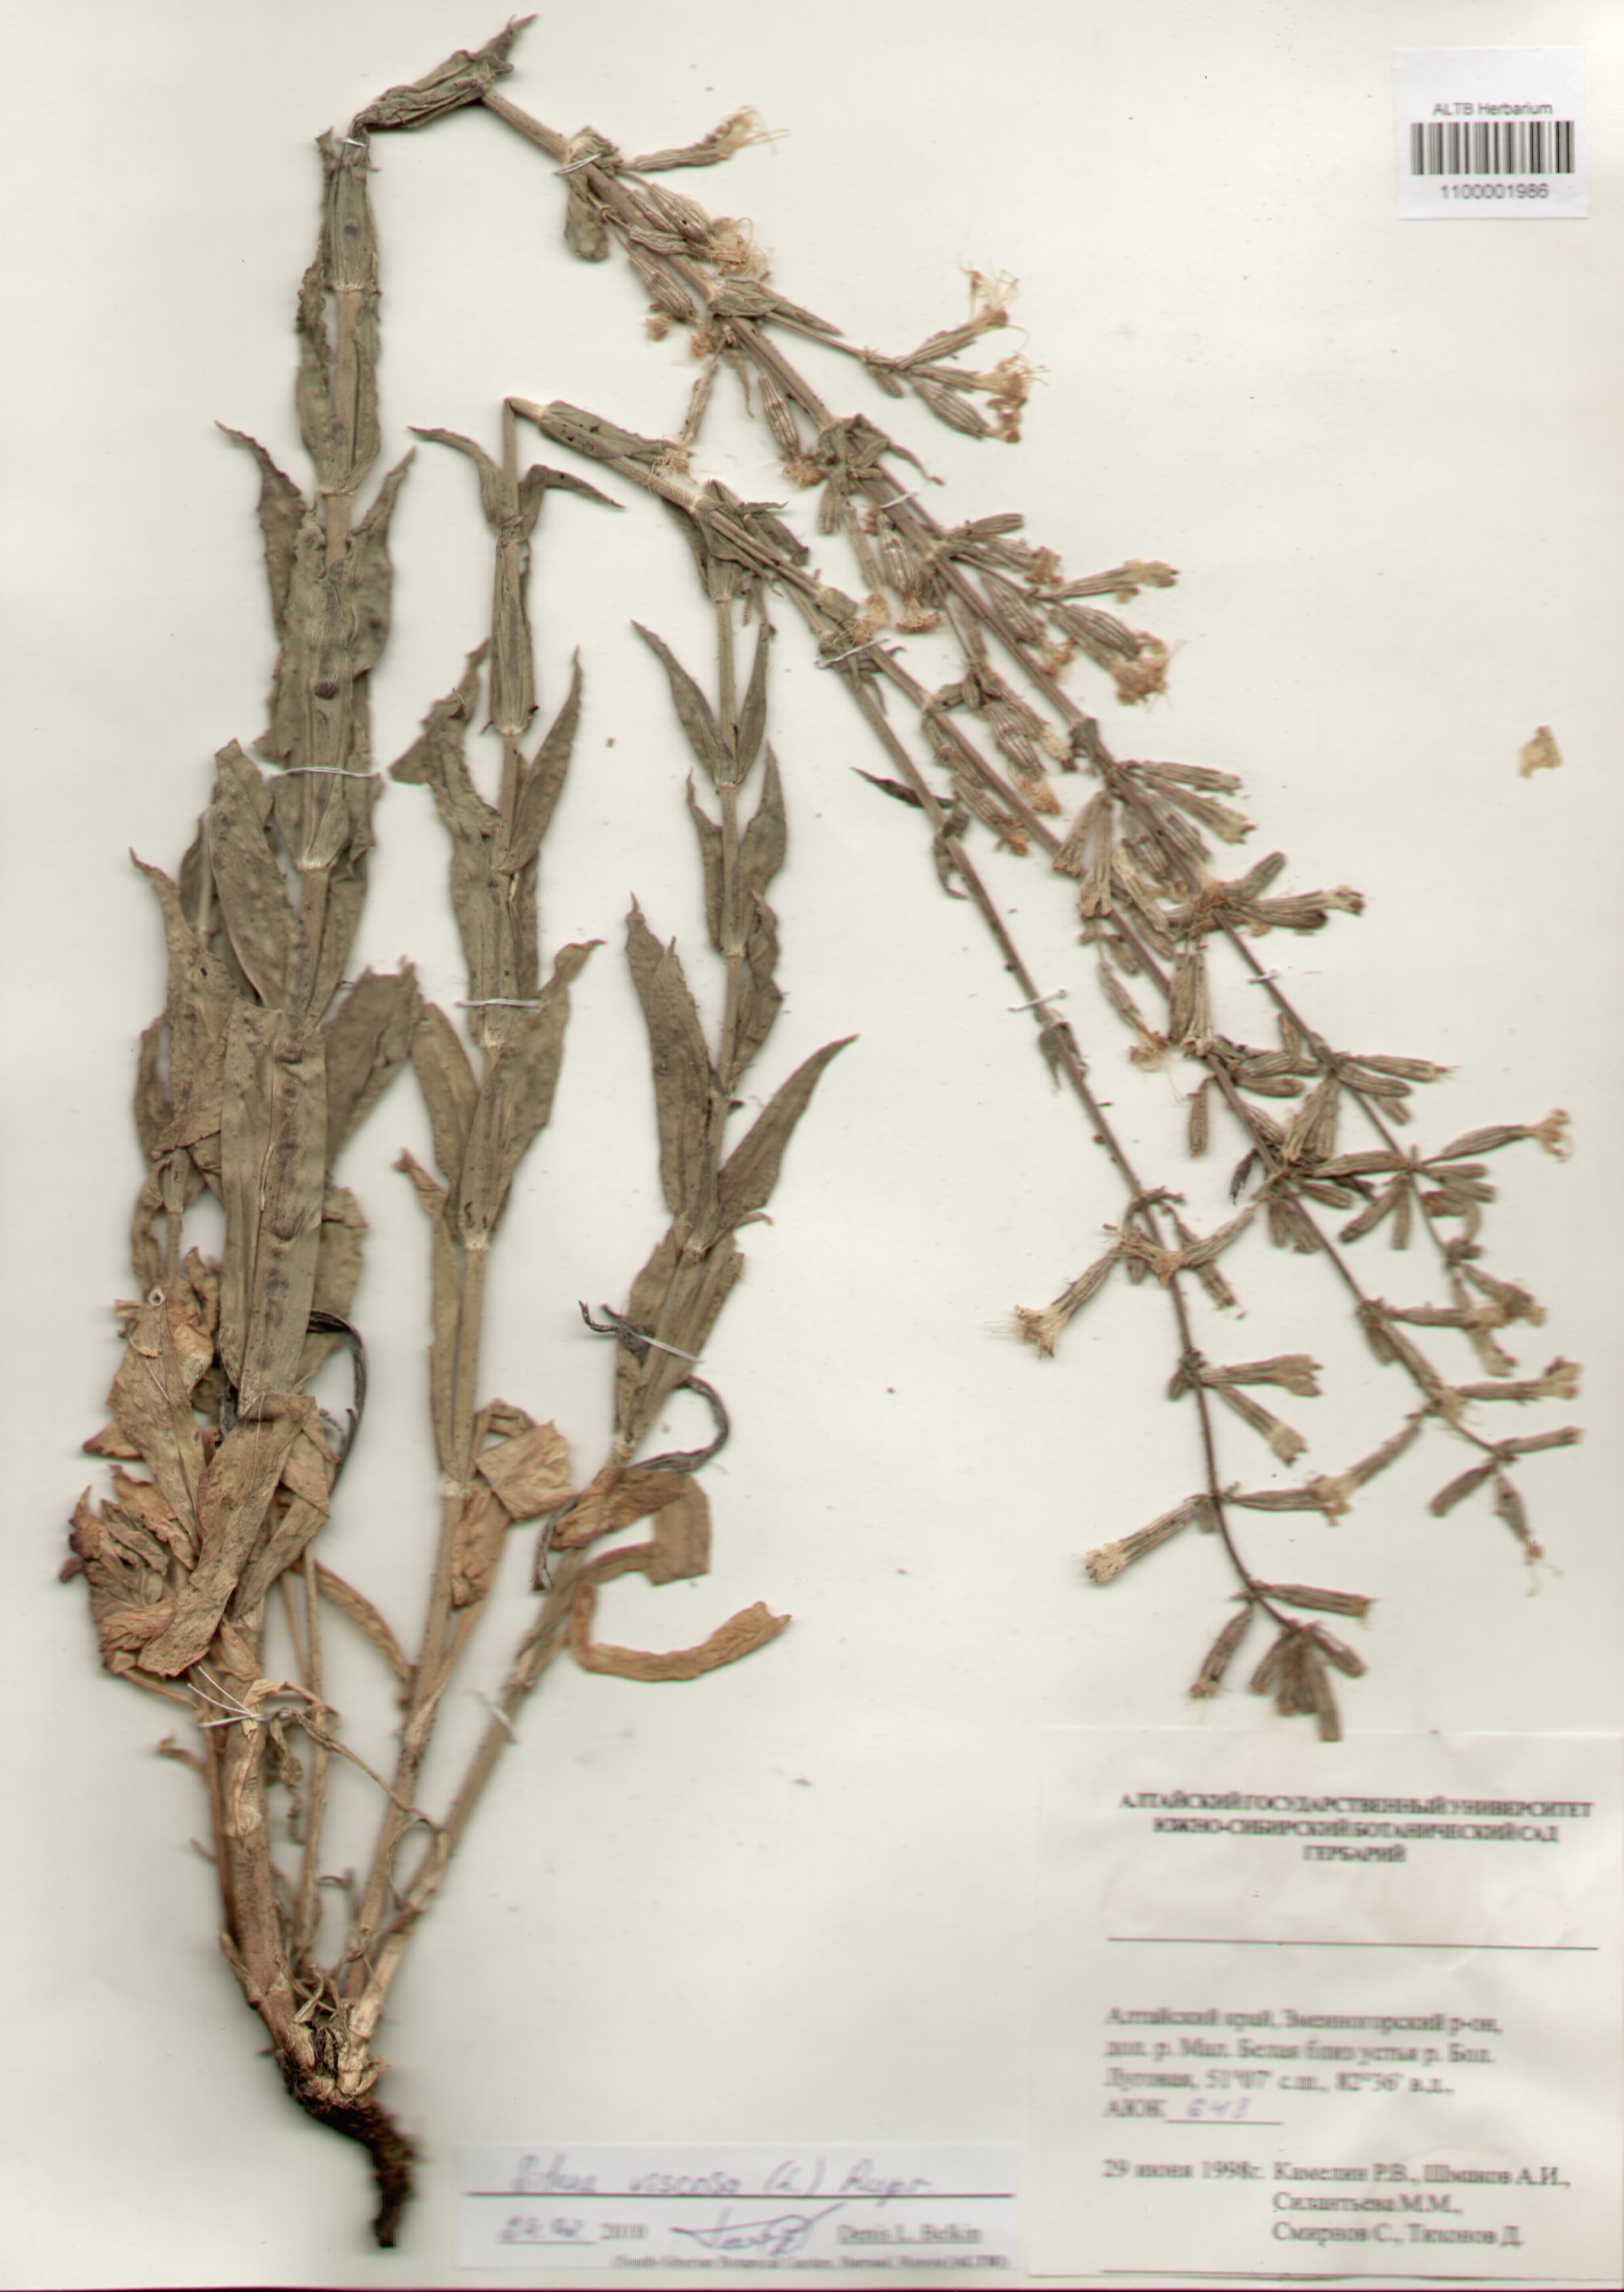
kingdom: Plantae
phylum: Tracheophyta
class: Magnoliopsida
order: Caryophyllales
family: Caryophyllaceae
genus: Silene
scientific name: Silene viscosa
